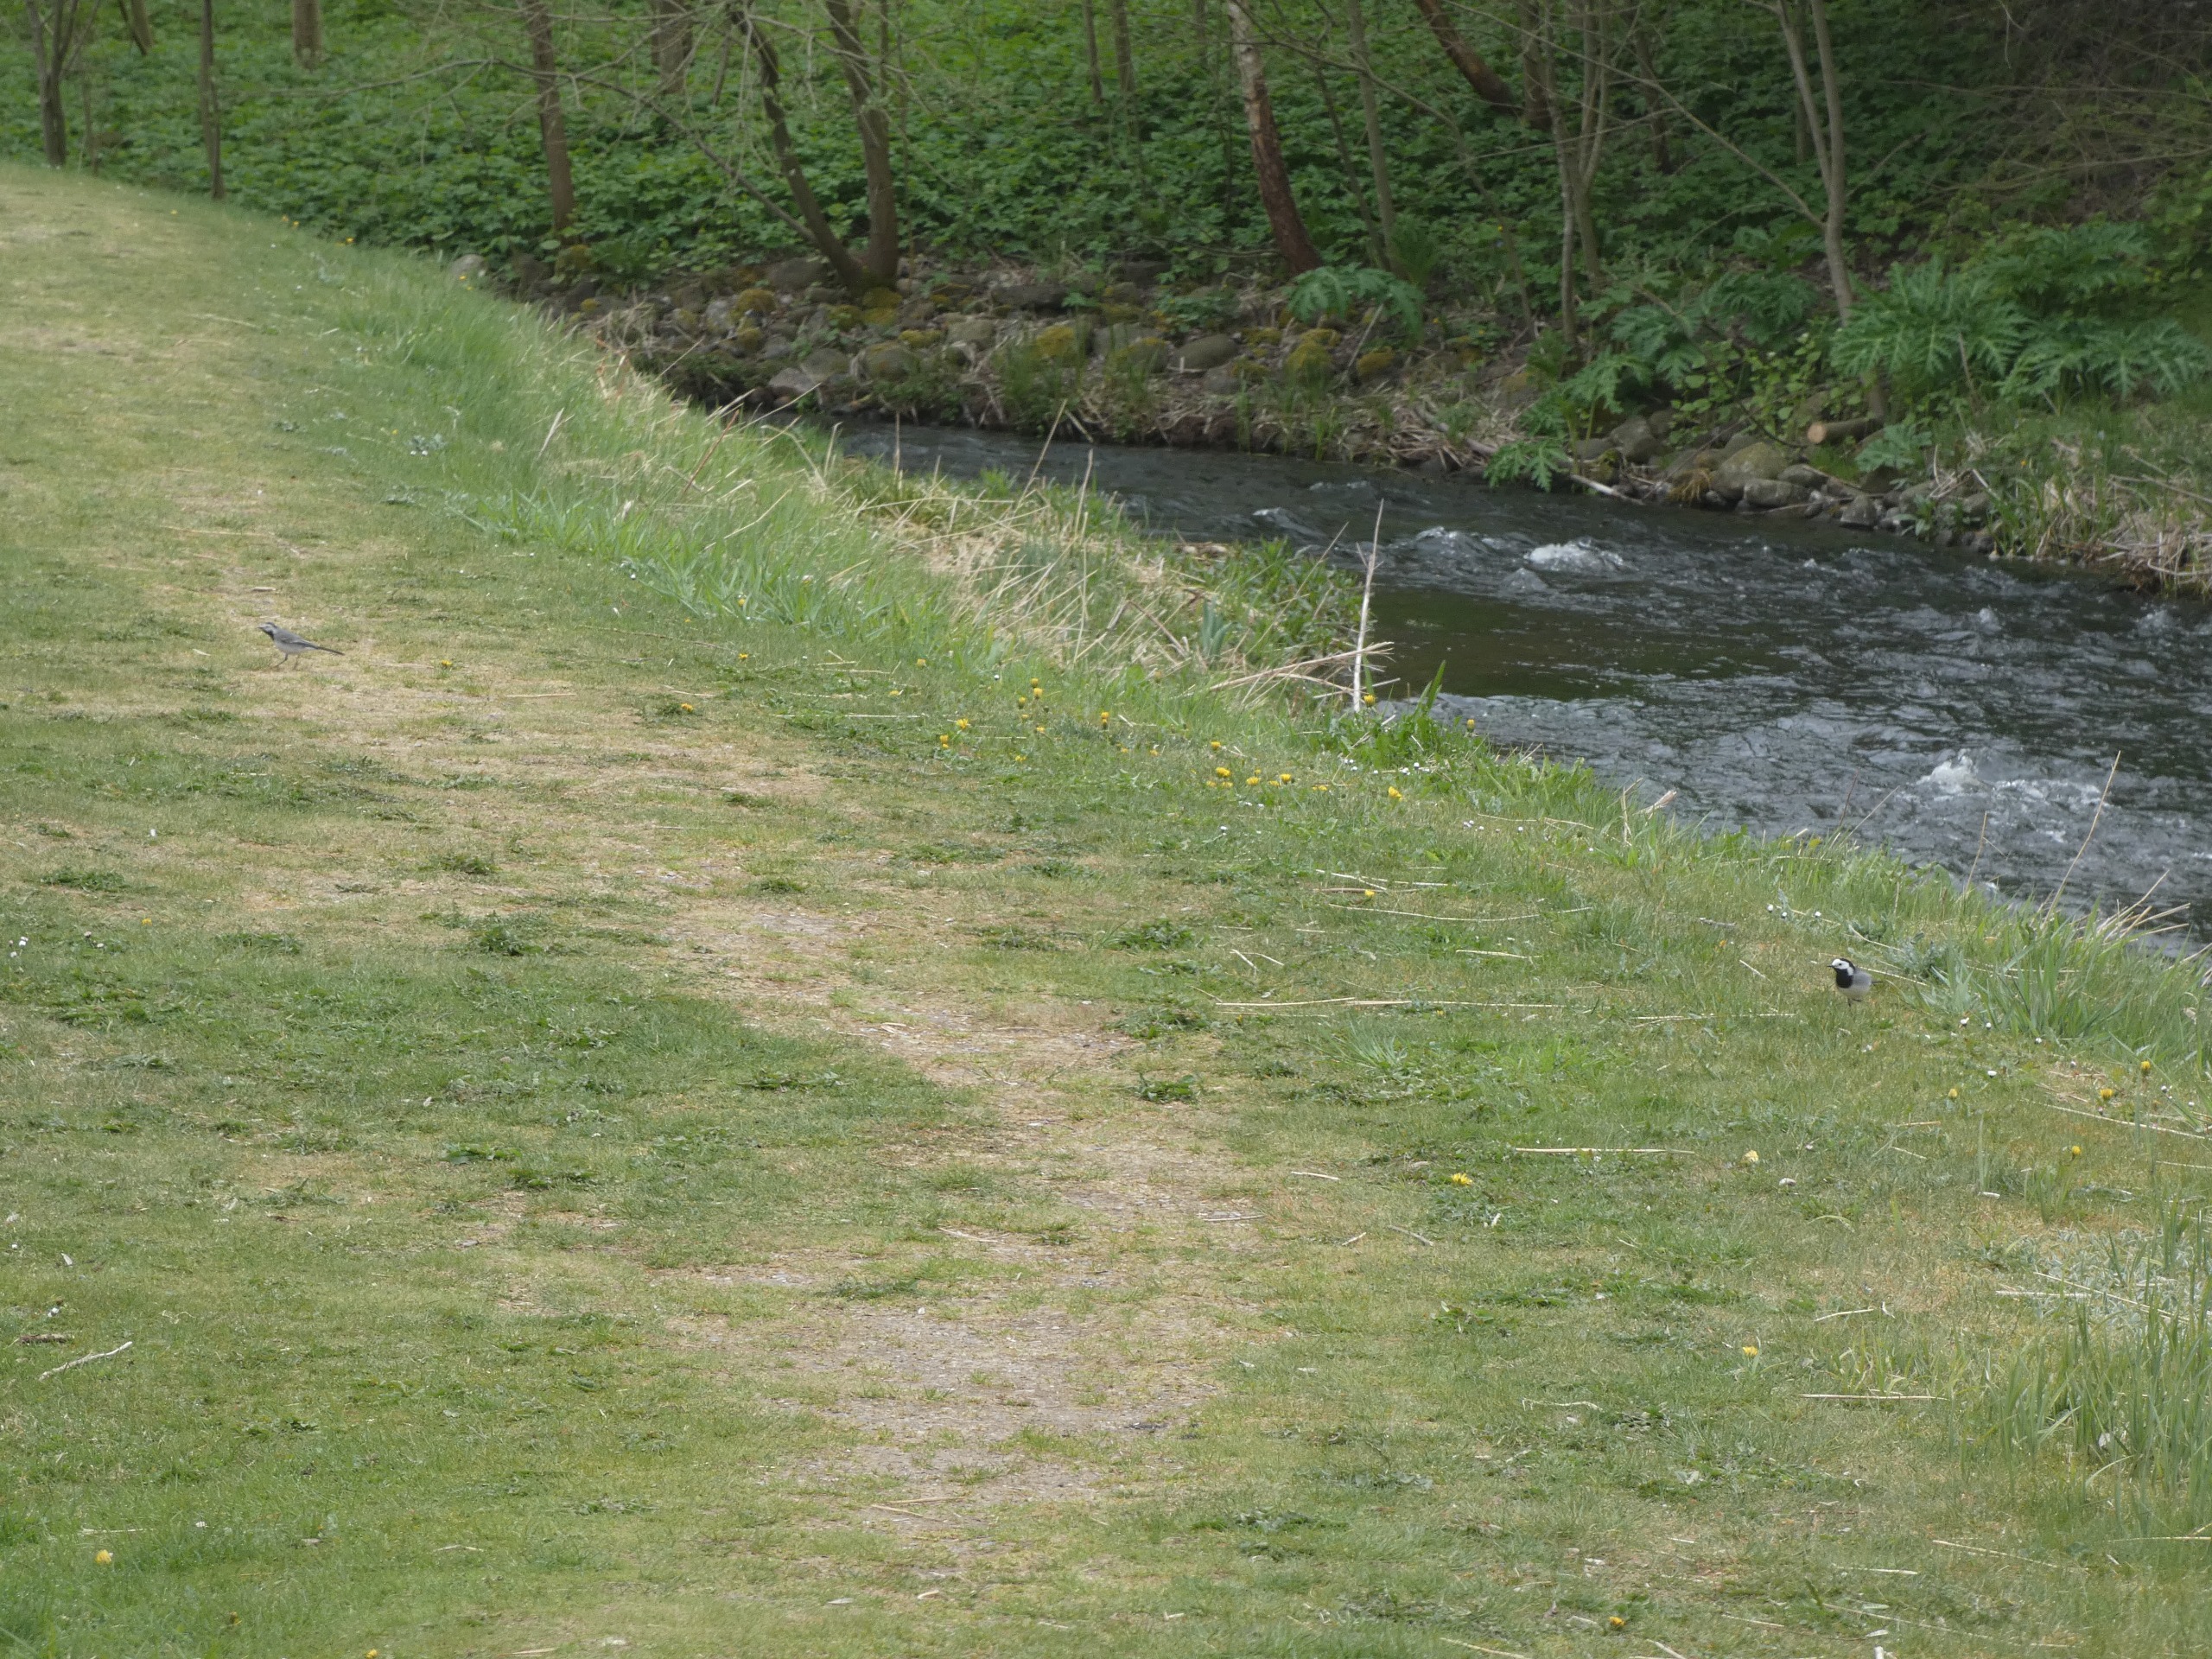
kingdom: Animalia
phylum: Chordata
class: Aves
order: Passeriformes
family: Motacillidae
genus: Motacilla
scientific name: Motacilla alba
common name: Hvid vipstjert
